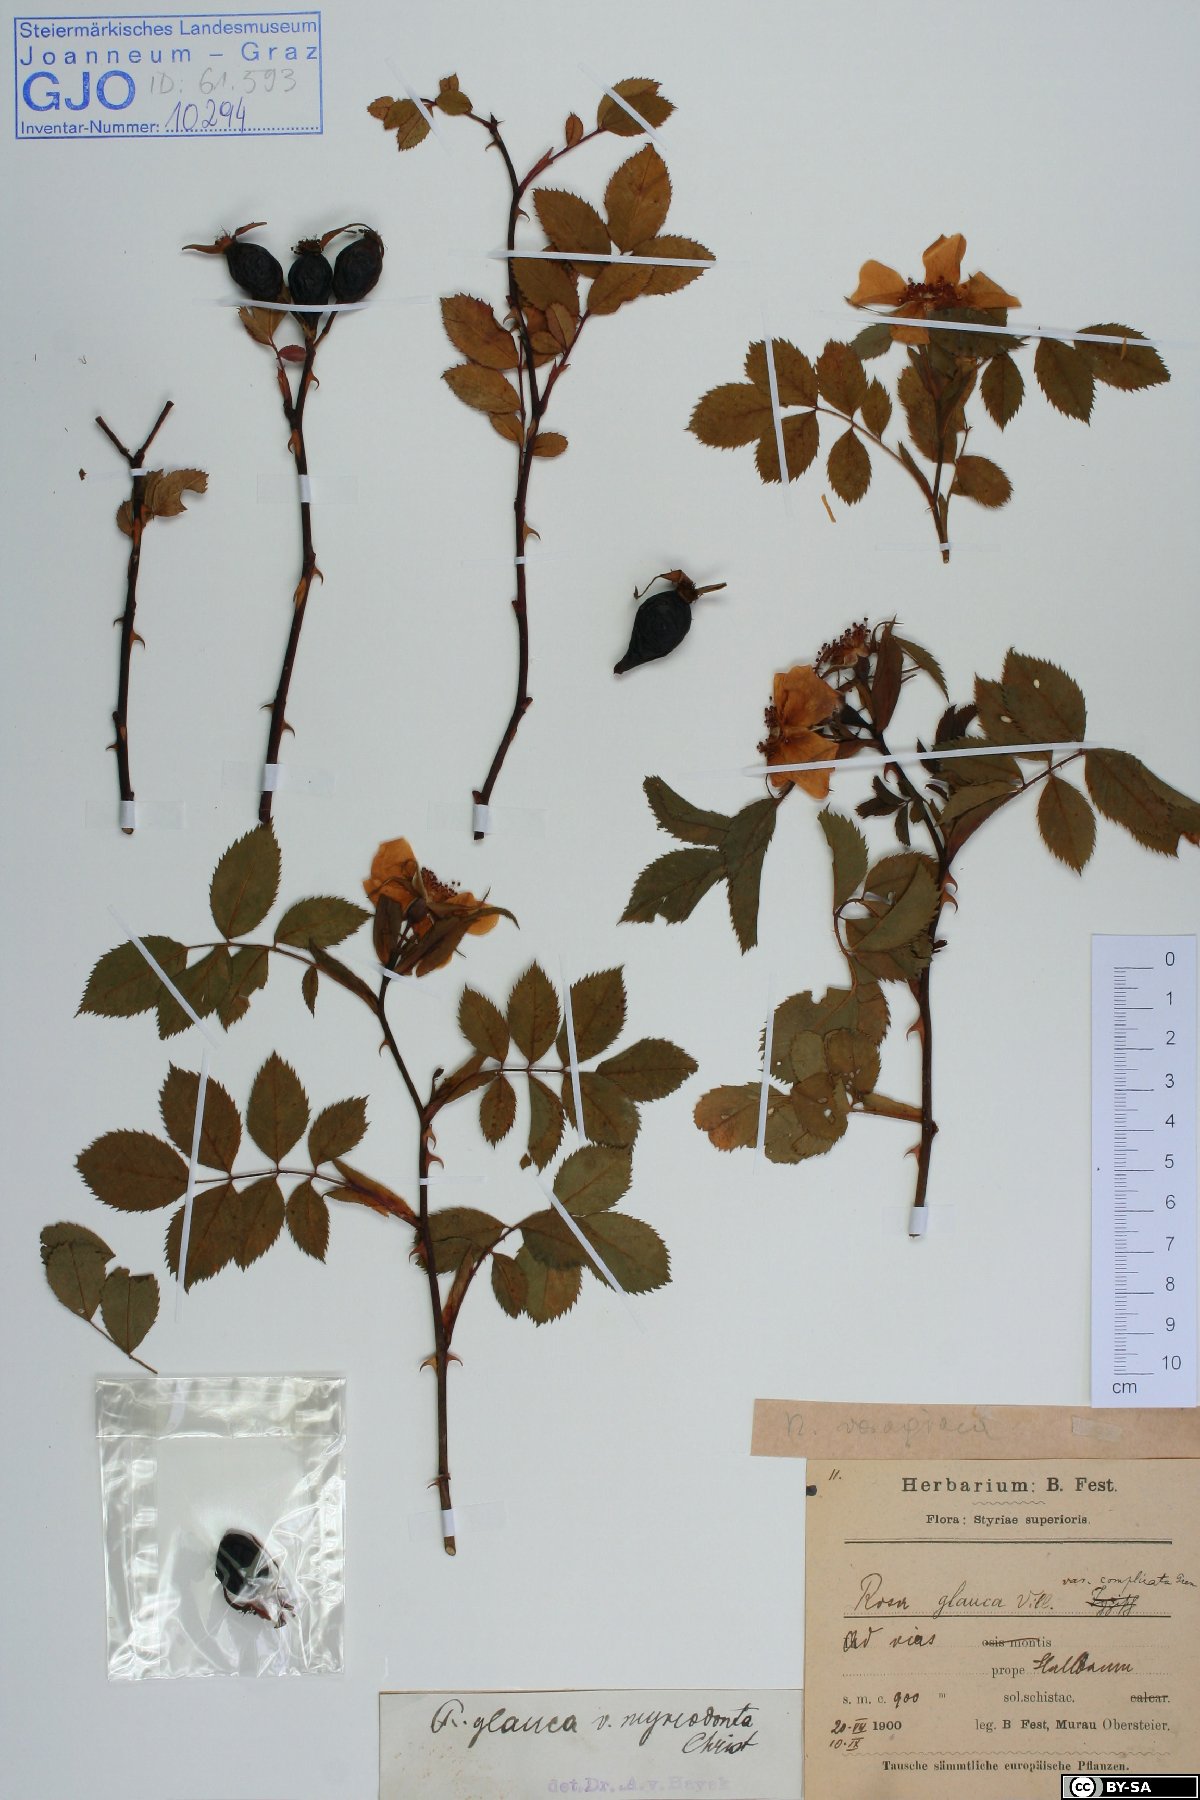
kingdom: Plantae
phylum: Tracheophyta
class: Magnoliopsida
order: Rosales
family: Rosaceae
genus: Rosa
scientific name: Rosa vosagiaca
